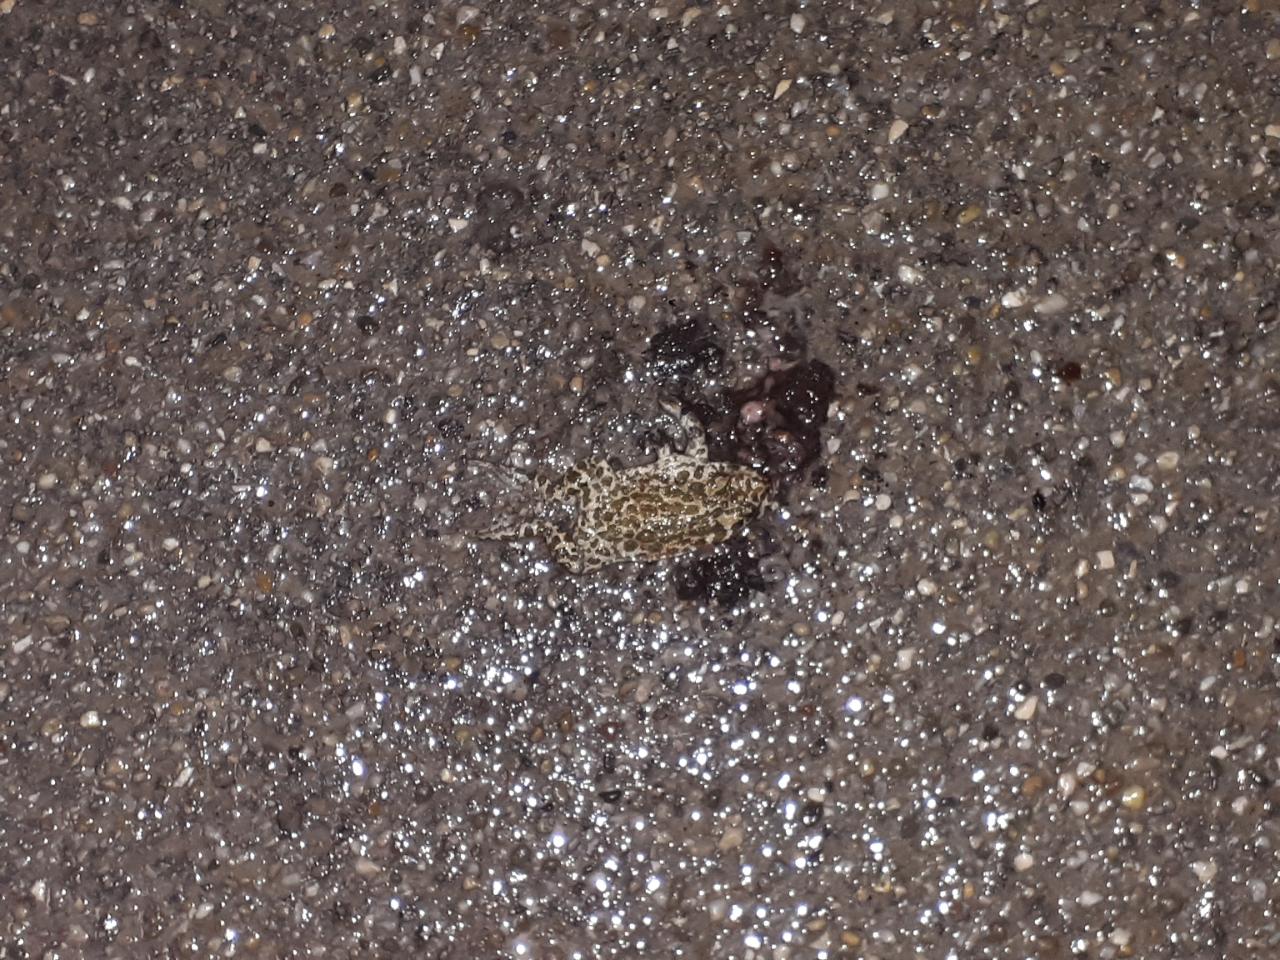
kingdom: Animalia
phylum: Chordata
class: Amphibia
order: Anura
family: Bufonidae
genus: Bufotes
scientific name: Bufotes viridis
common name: European green toad
